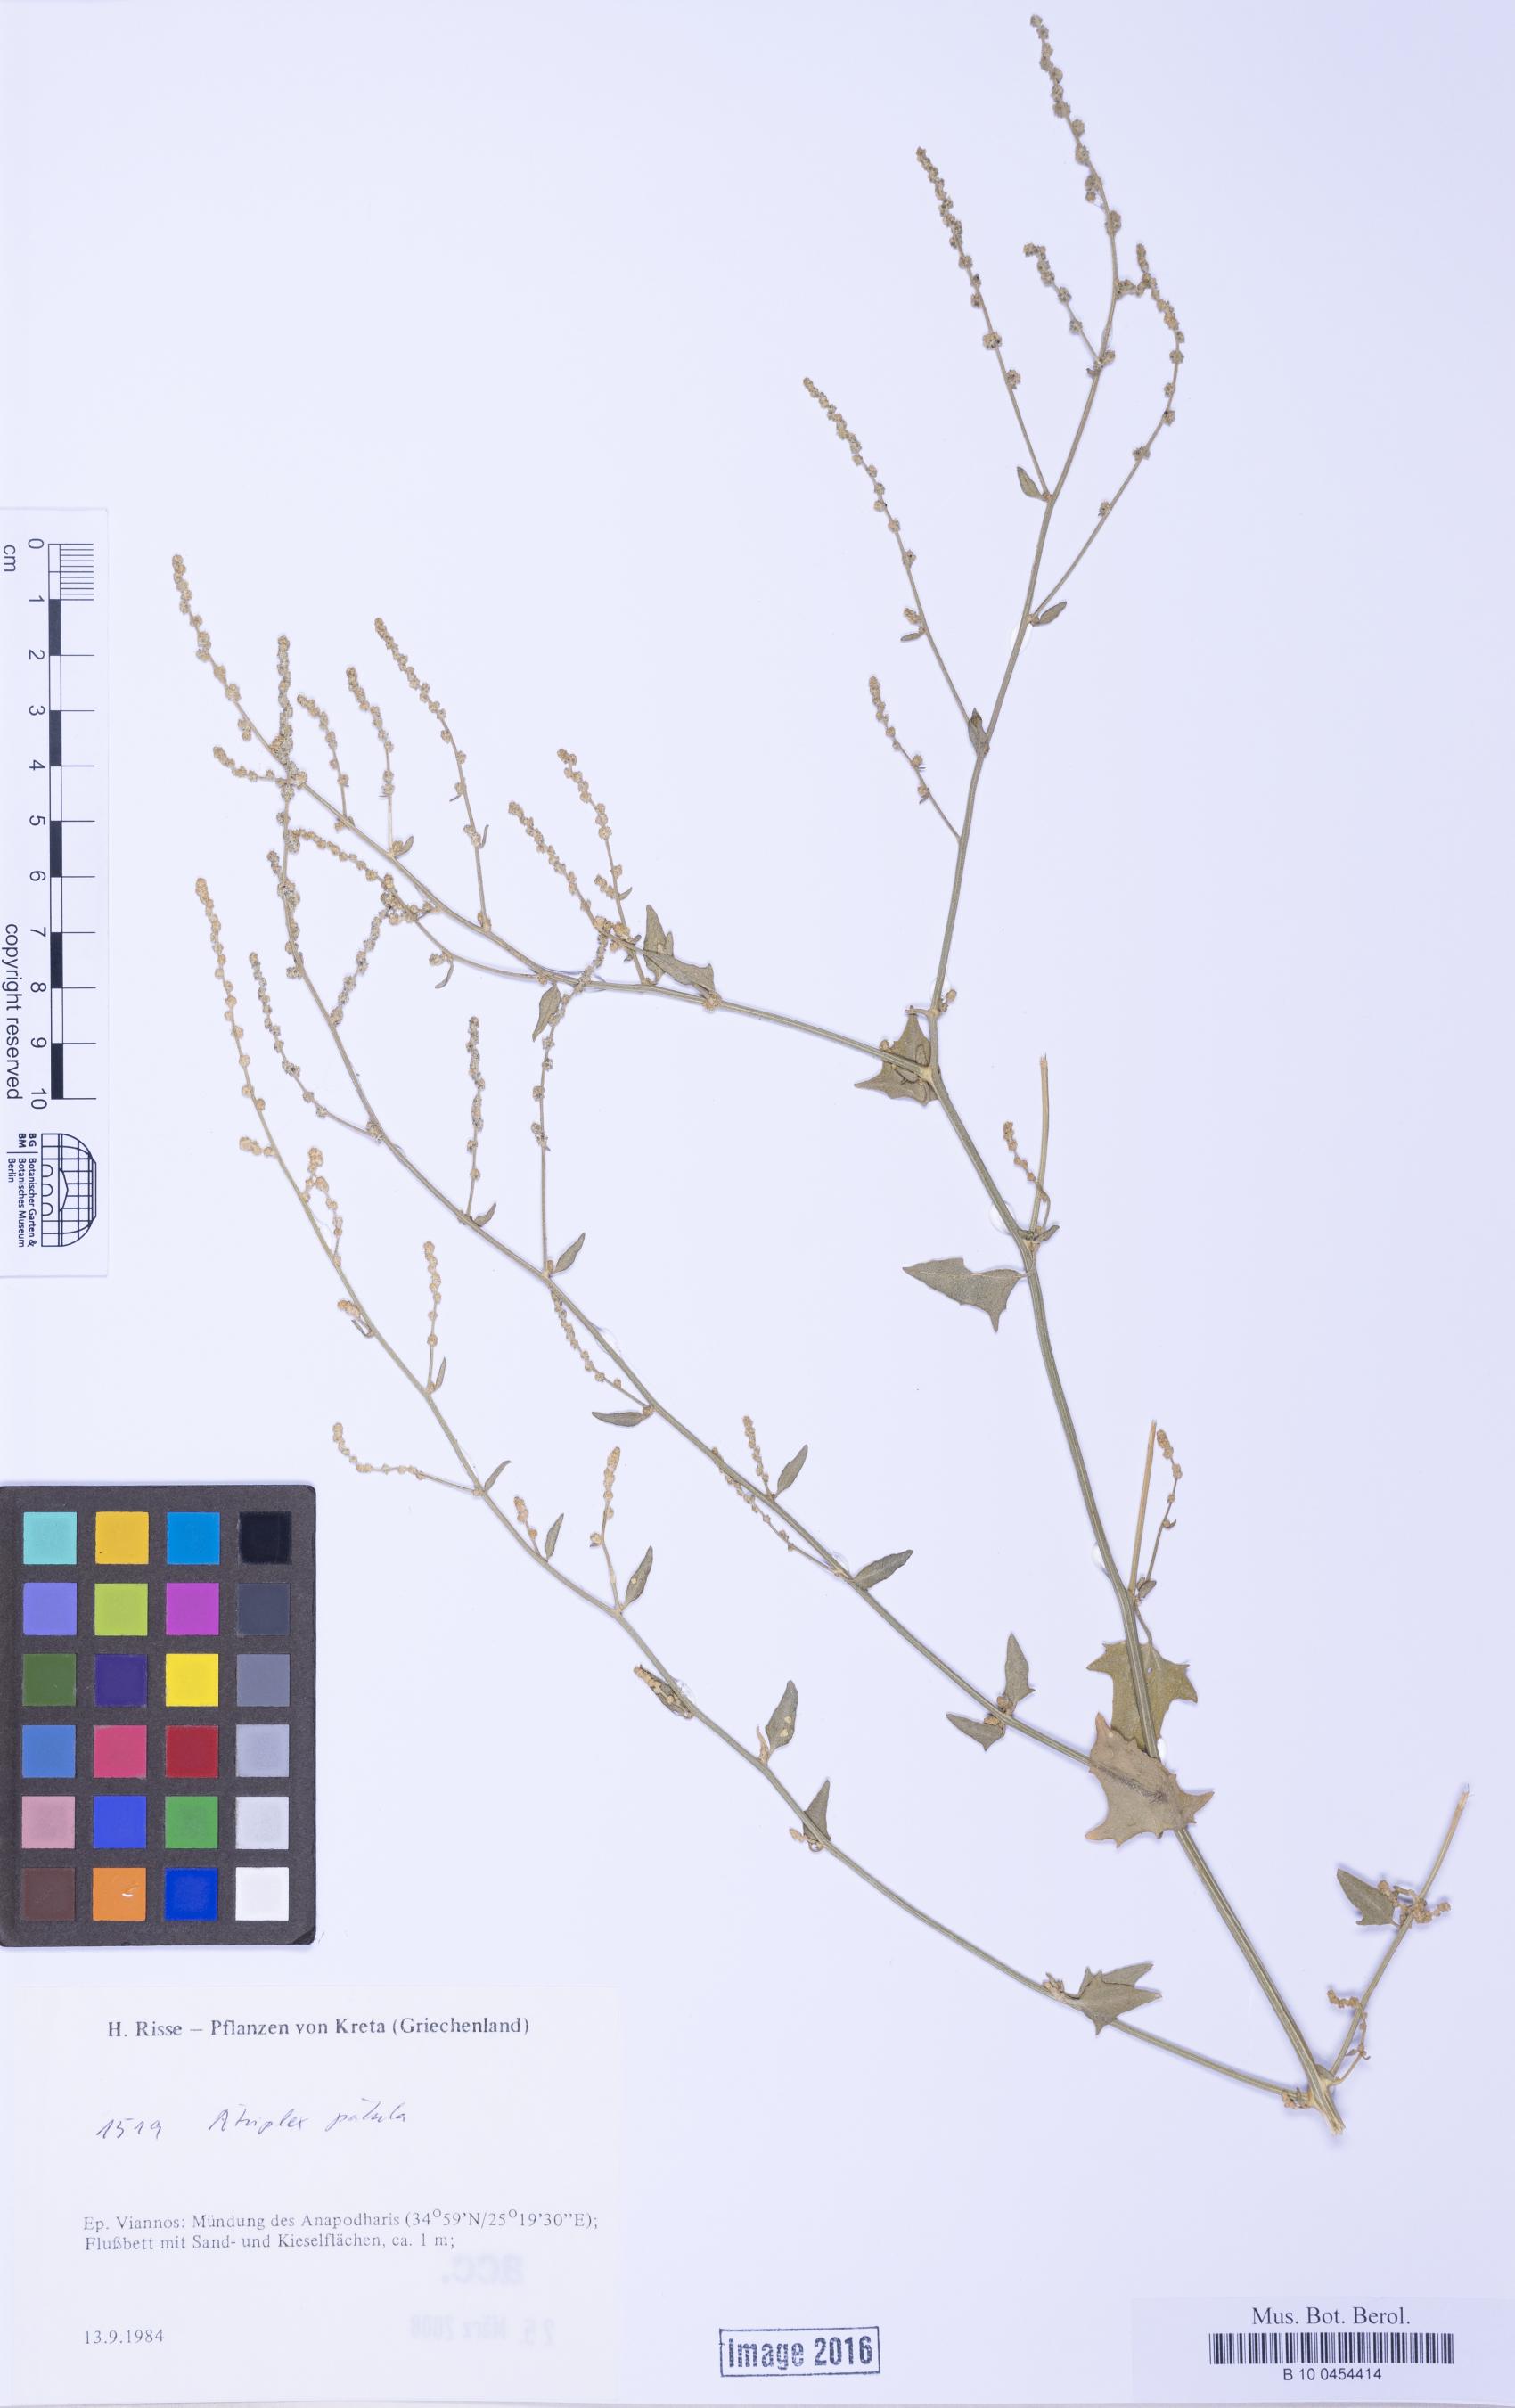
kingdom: Plantae
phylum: Tracheophyta
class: Magnoliopsida
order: Caryophyllales
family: Amaranthaceae
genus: Atriplex
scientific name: Atriplex prostrata
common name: Spear-leaved orache
